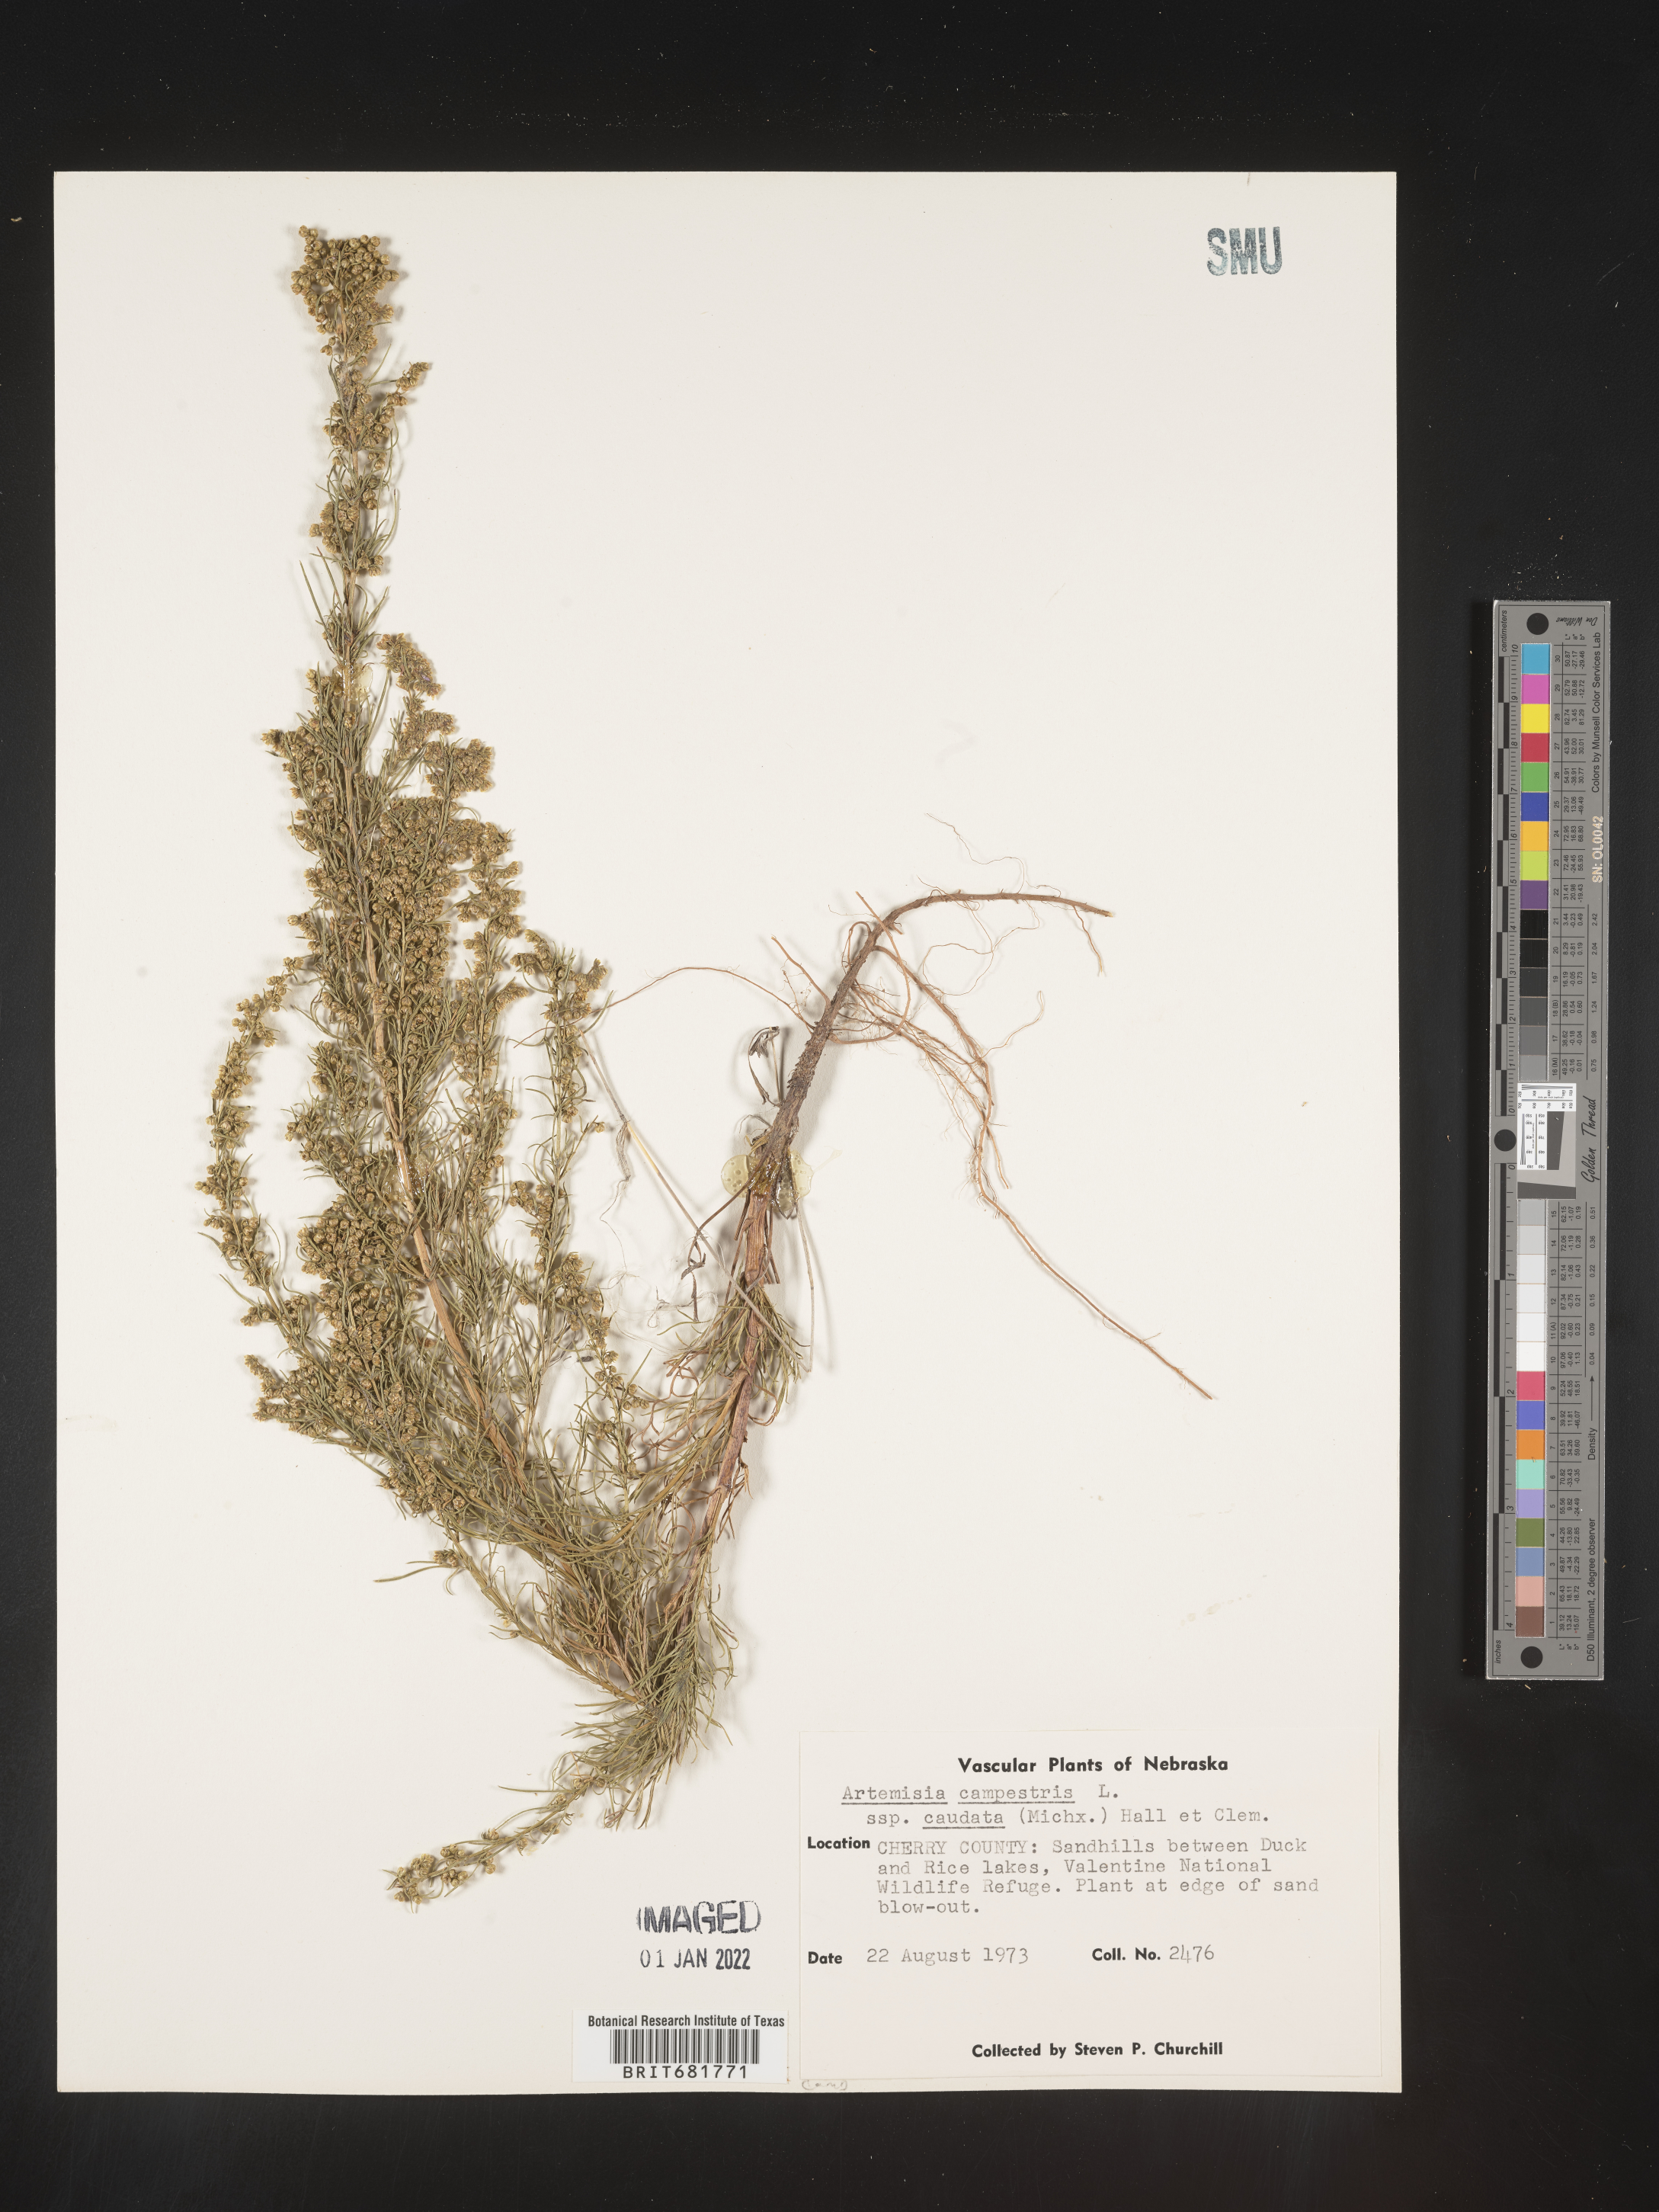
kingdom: Plantae
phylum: Tracheophyta
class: Magnoliopsida
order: Asterales
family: Asteraceae
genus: Artemisia
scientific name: Artemisia campestris
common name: Field wormwood
